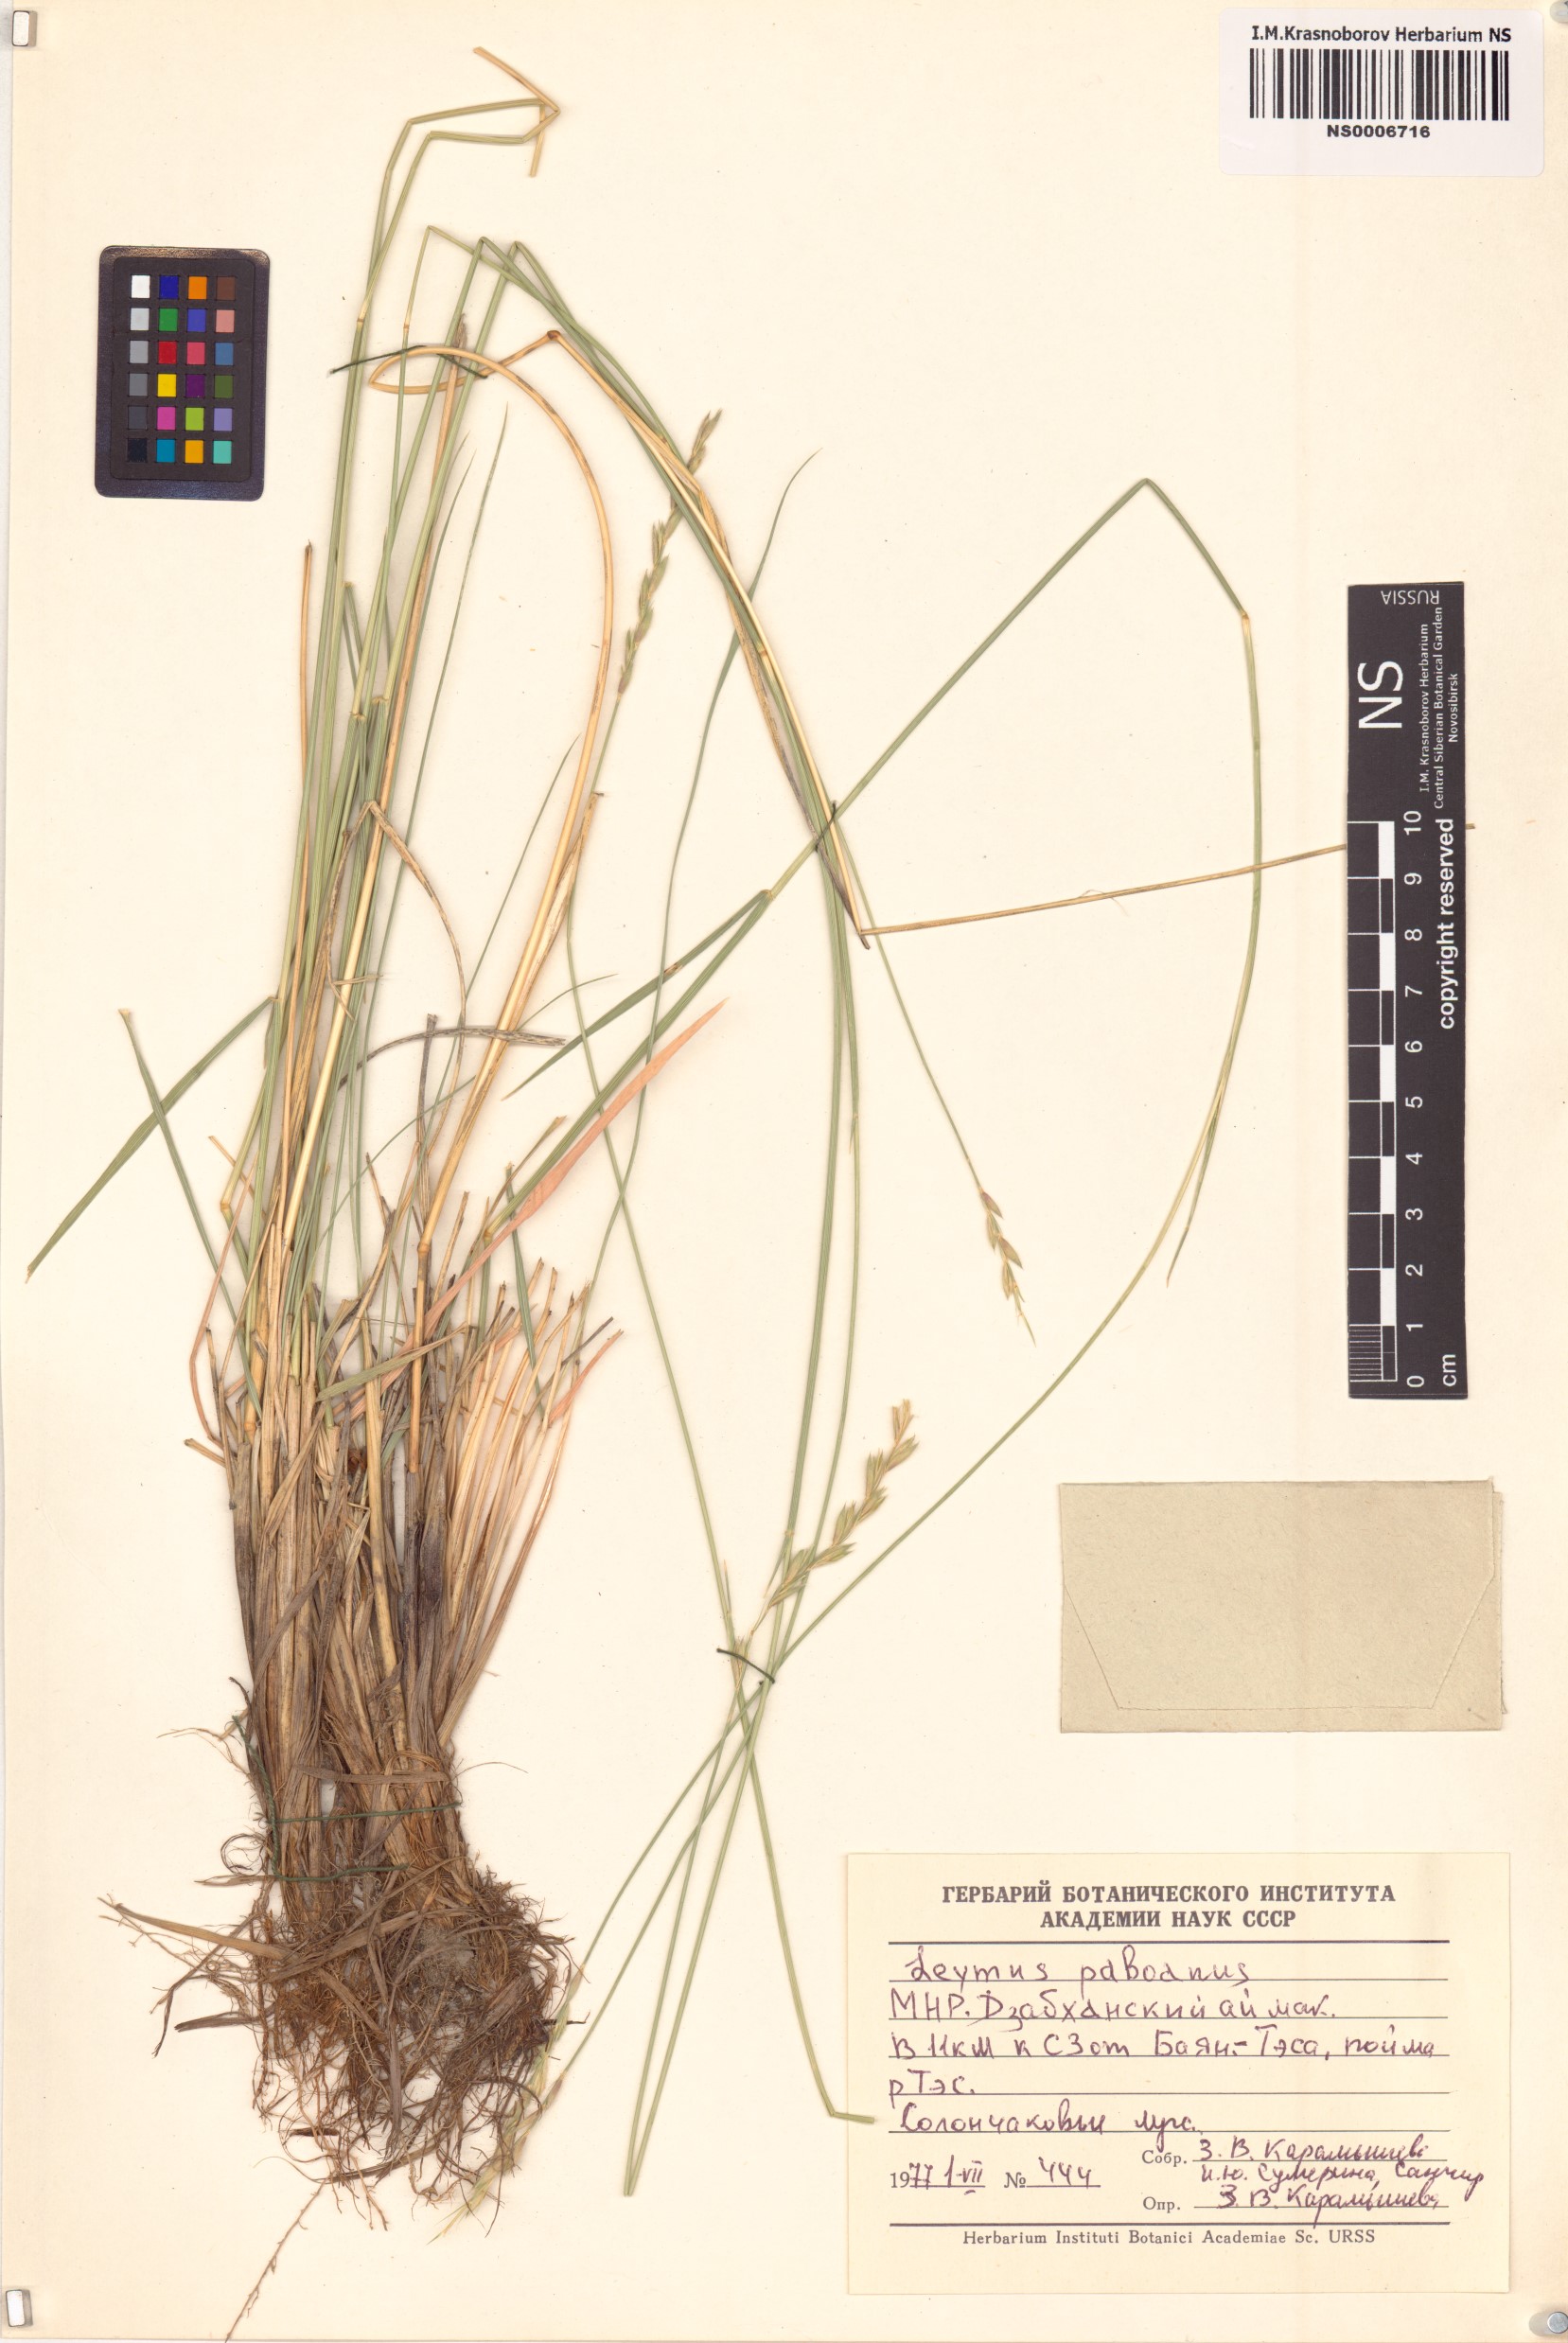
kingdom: Plantae
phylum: Tracheophyta
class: Liliopsida
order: Poales
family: Poaceae
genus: Leymus
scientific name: Leymus paboanus
